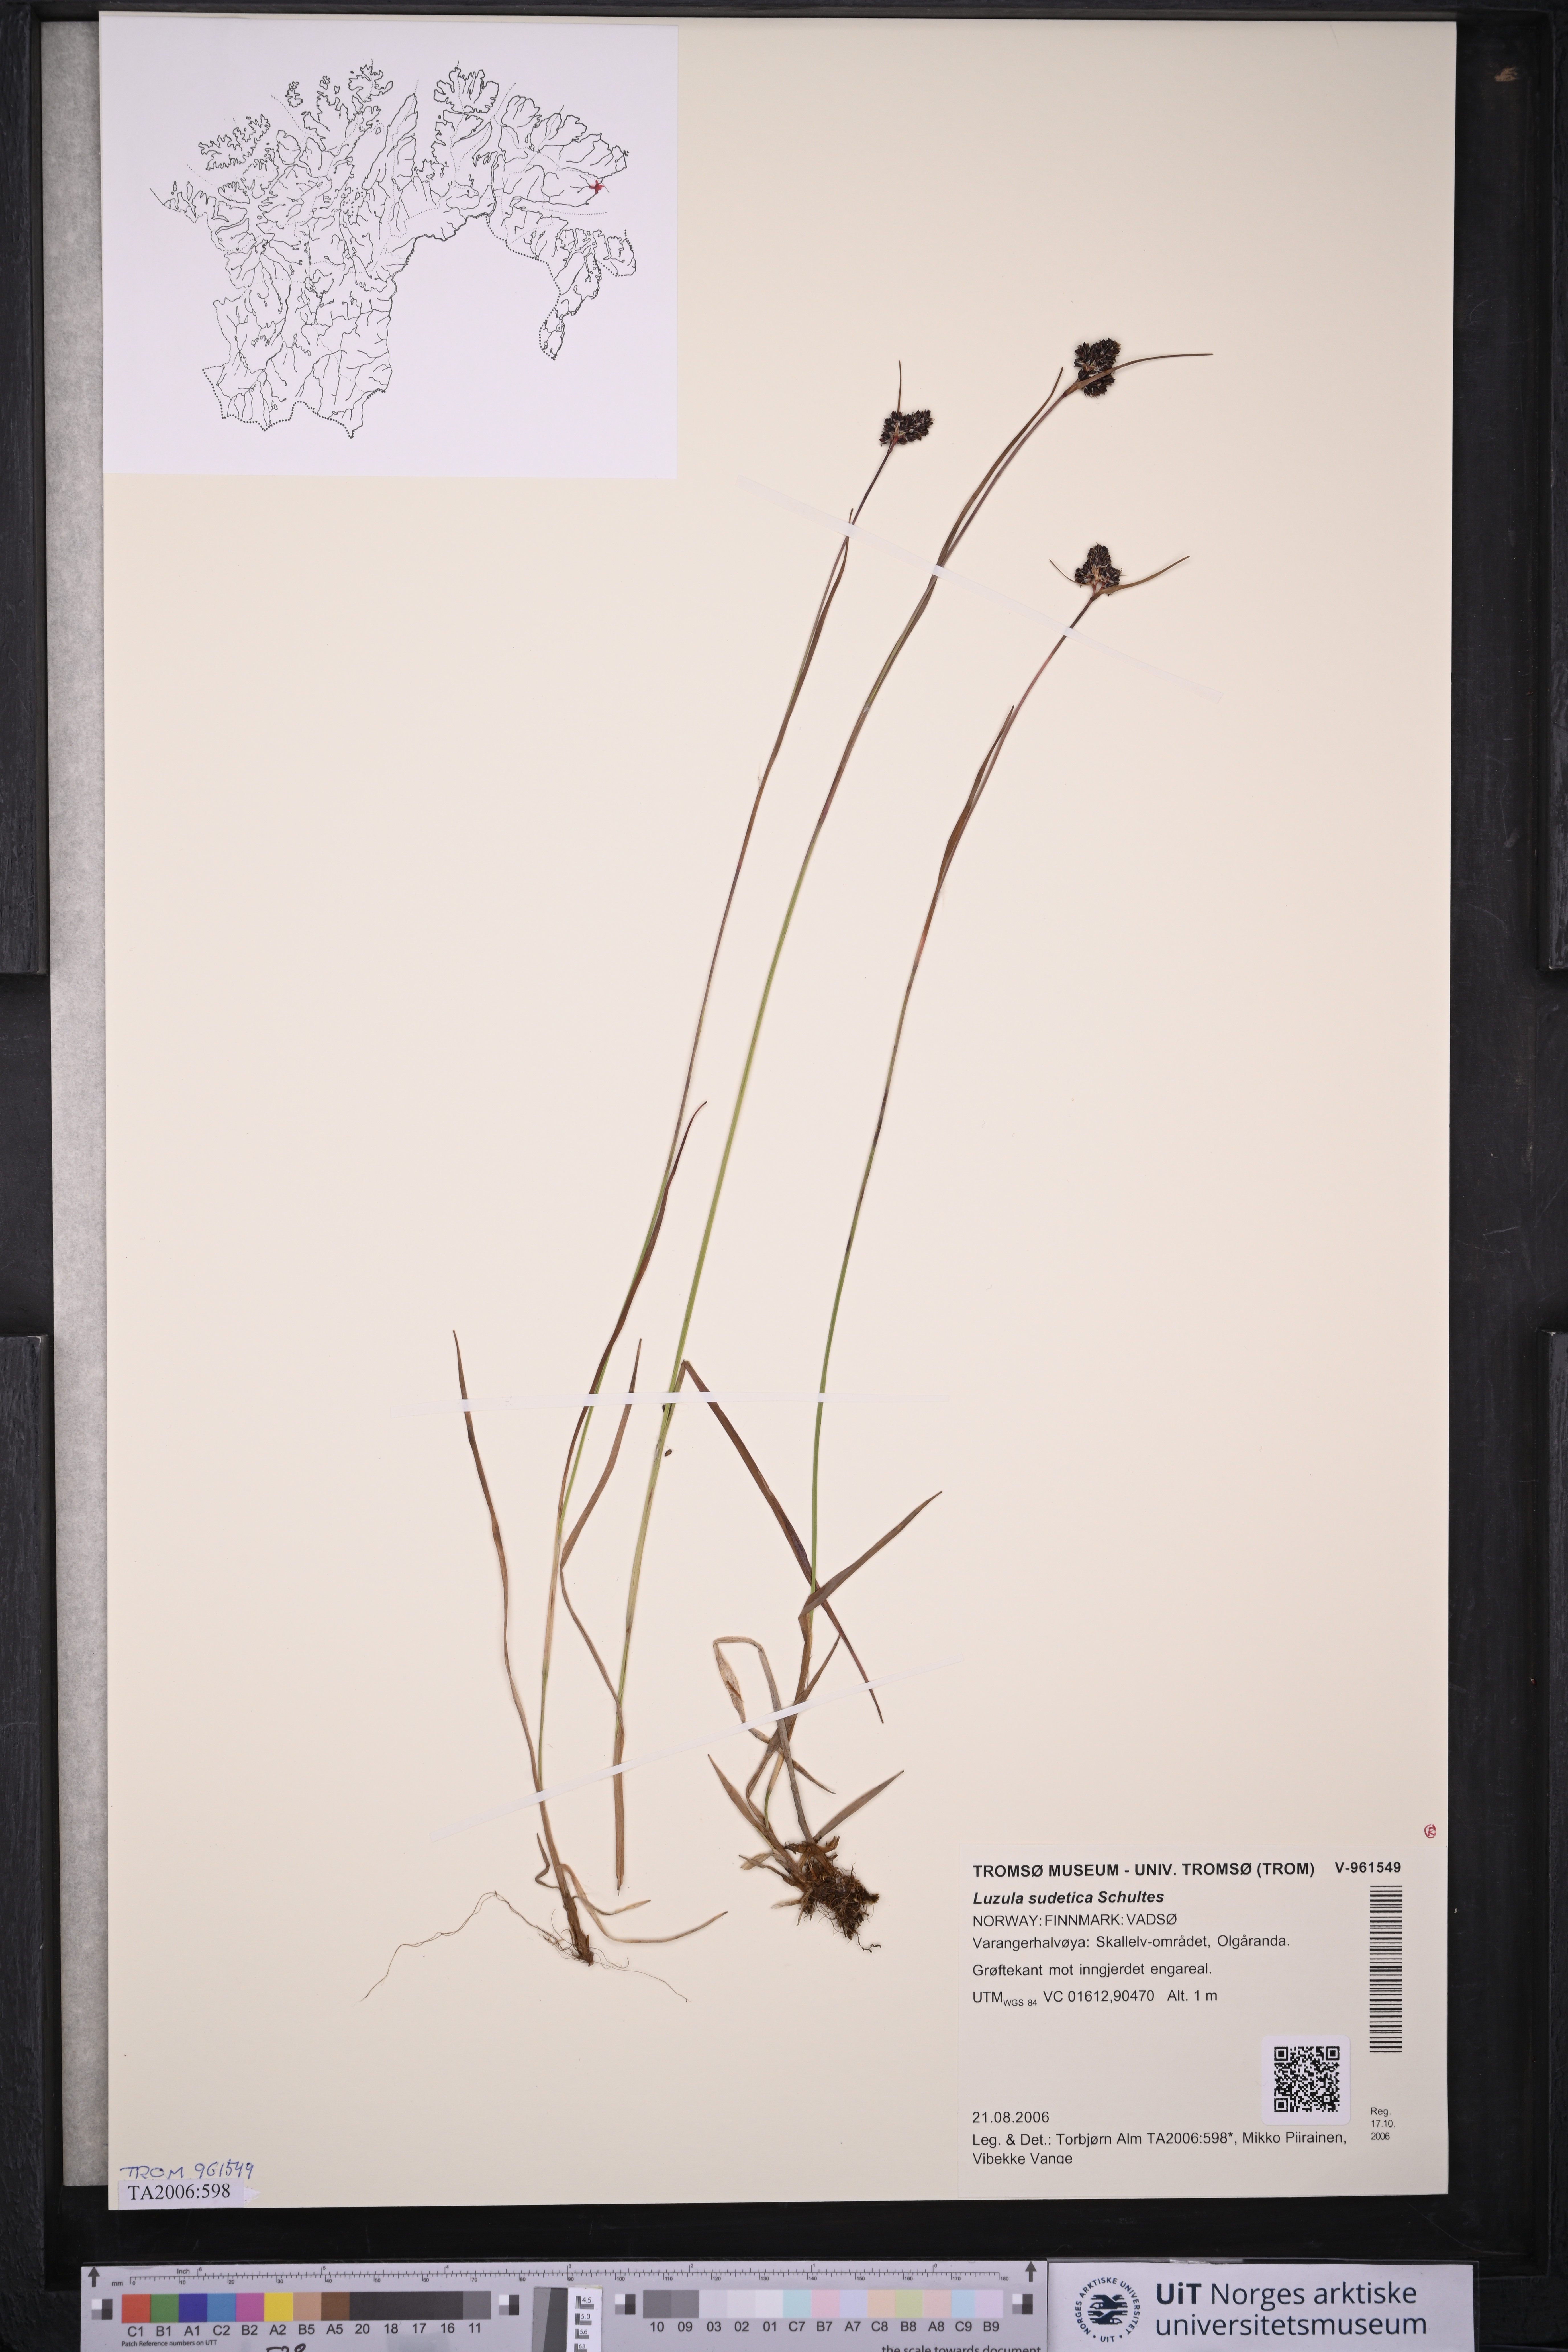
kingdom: Plantae
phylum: Tracheophyta
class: Liliopsida
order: Poales
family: Juncaceae
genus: Luzula
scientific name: Luzula sudetica
